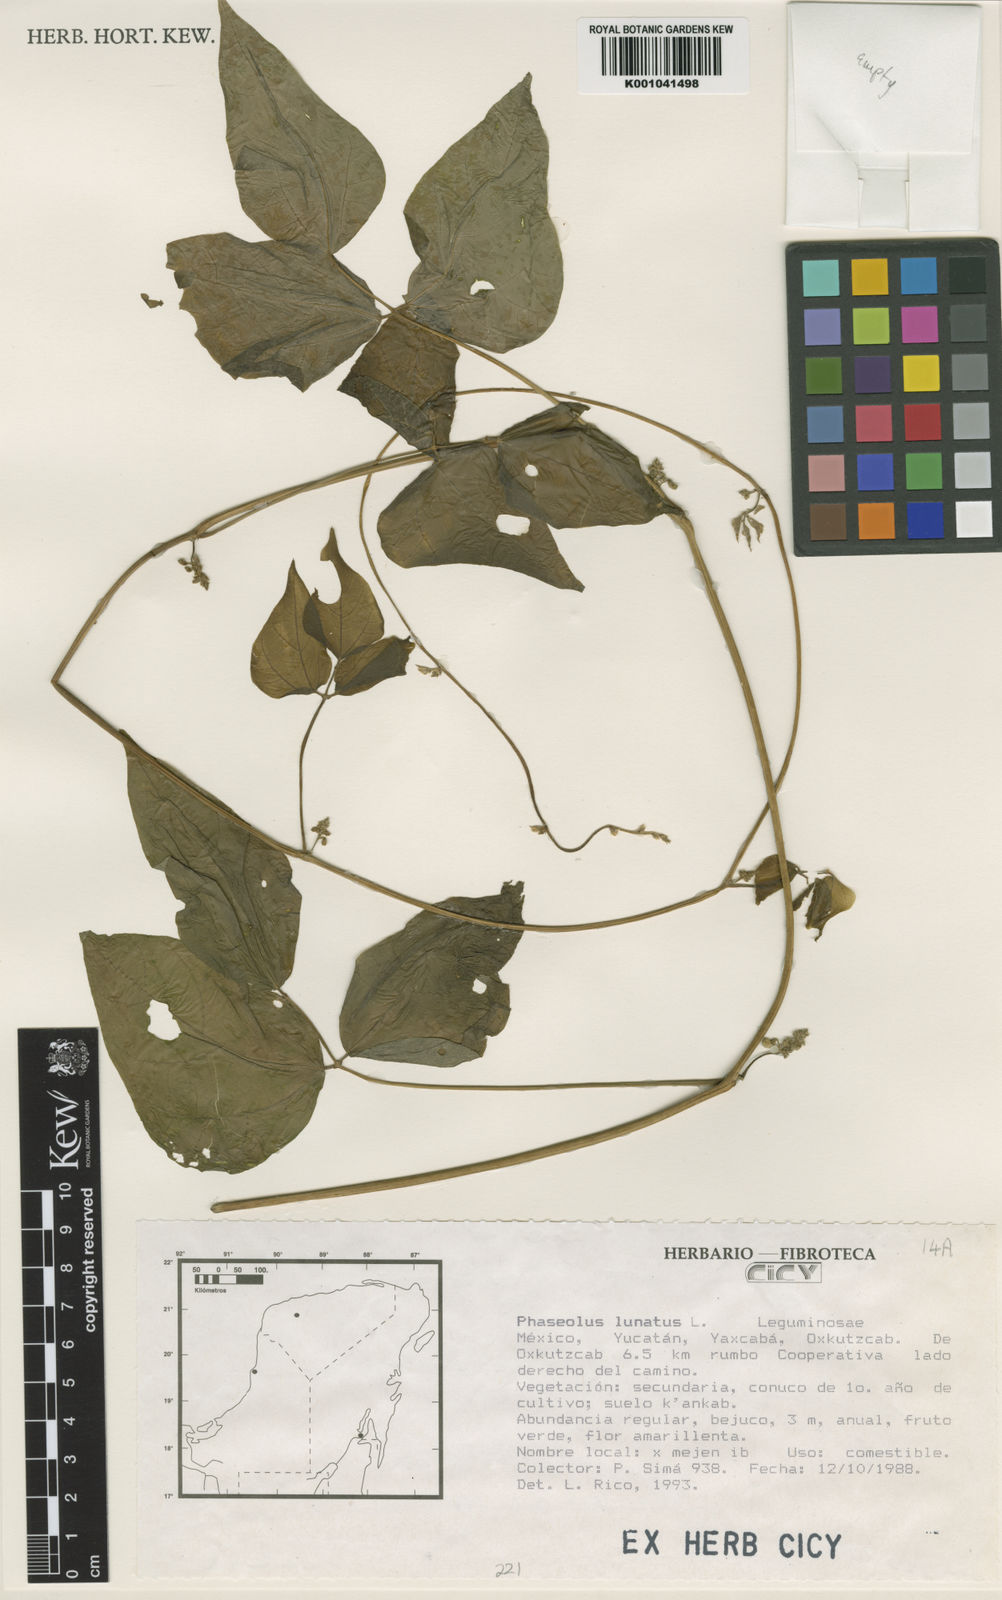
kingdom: Plantae
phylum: Tracheophyta
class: Magnoliopsida
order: Fabales
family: Fabaceae
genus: Phaseolus
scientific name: Phaseolus lunatus
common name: Sieva bean
